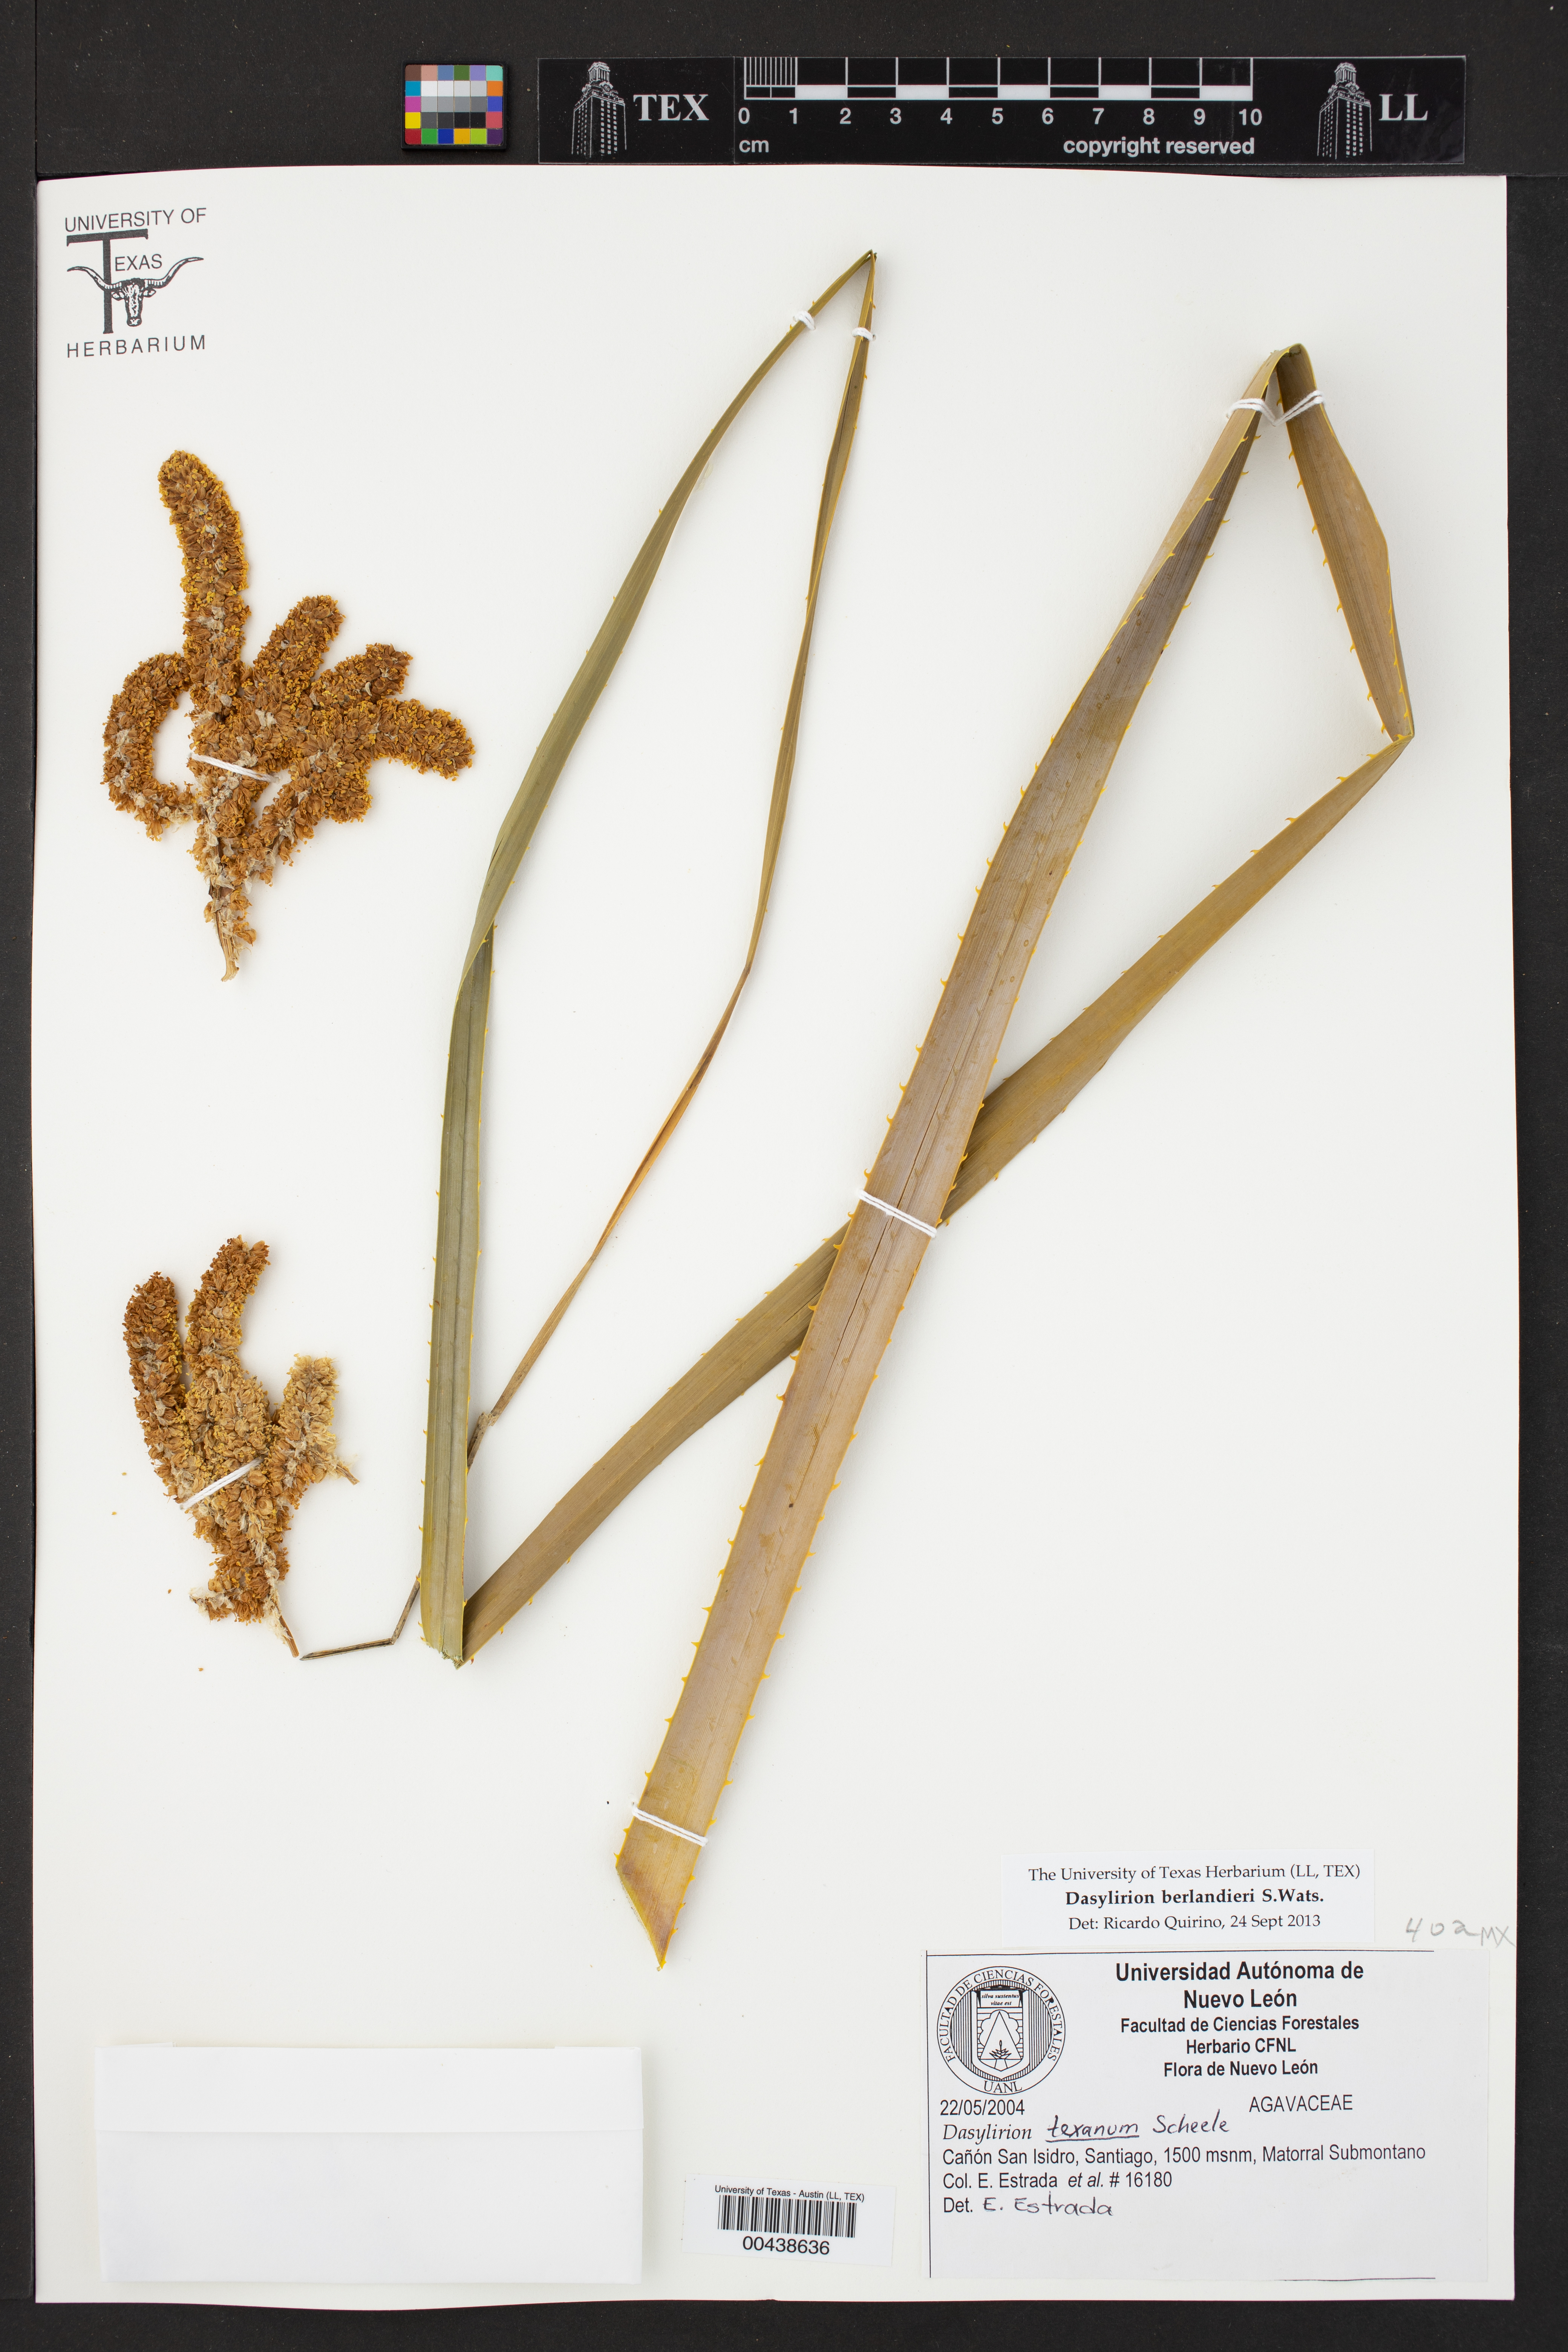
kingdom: Plantae
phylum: Tracheophyta
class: Liliopsida
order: Asparagales
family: Asparagaceae
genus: Dasylirion
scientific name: Dasylirion berlandieri
